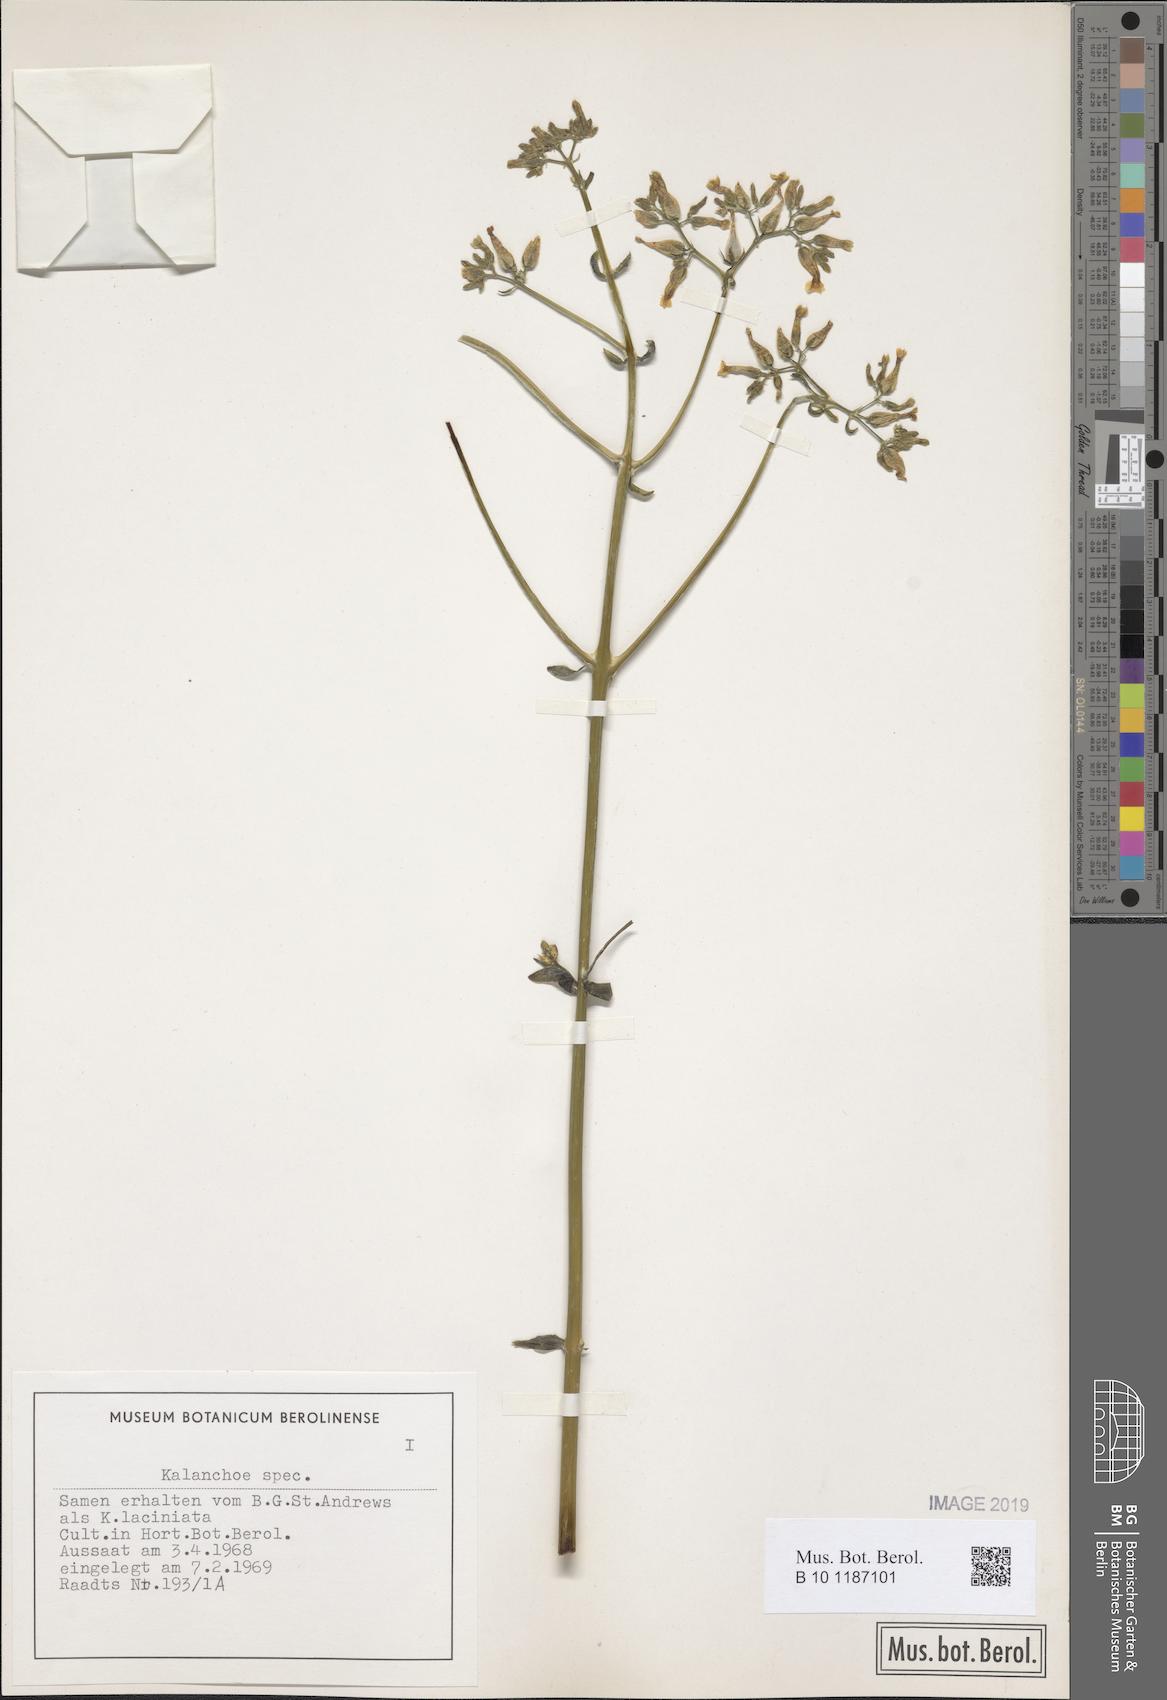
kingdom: Plantae
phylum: Tracheophyta
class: Magnoliopsida
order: Saxifragales
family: Crassulaceae
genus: Kalanchoe
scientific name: Kalanchoe
